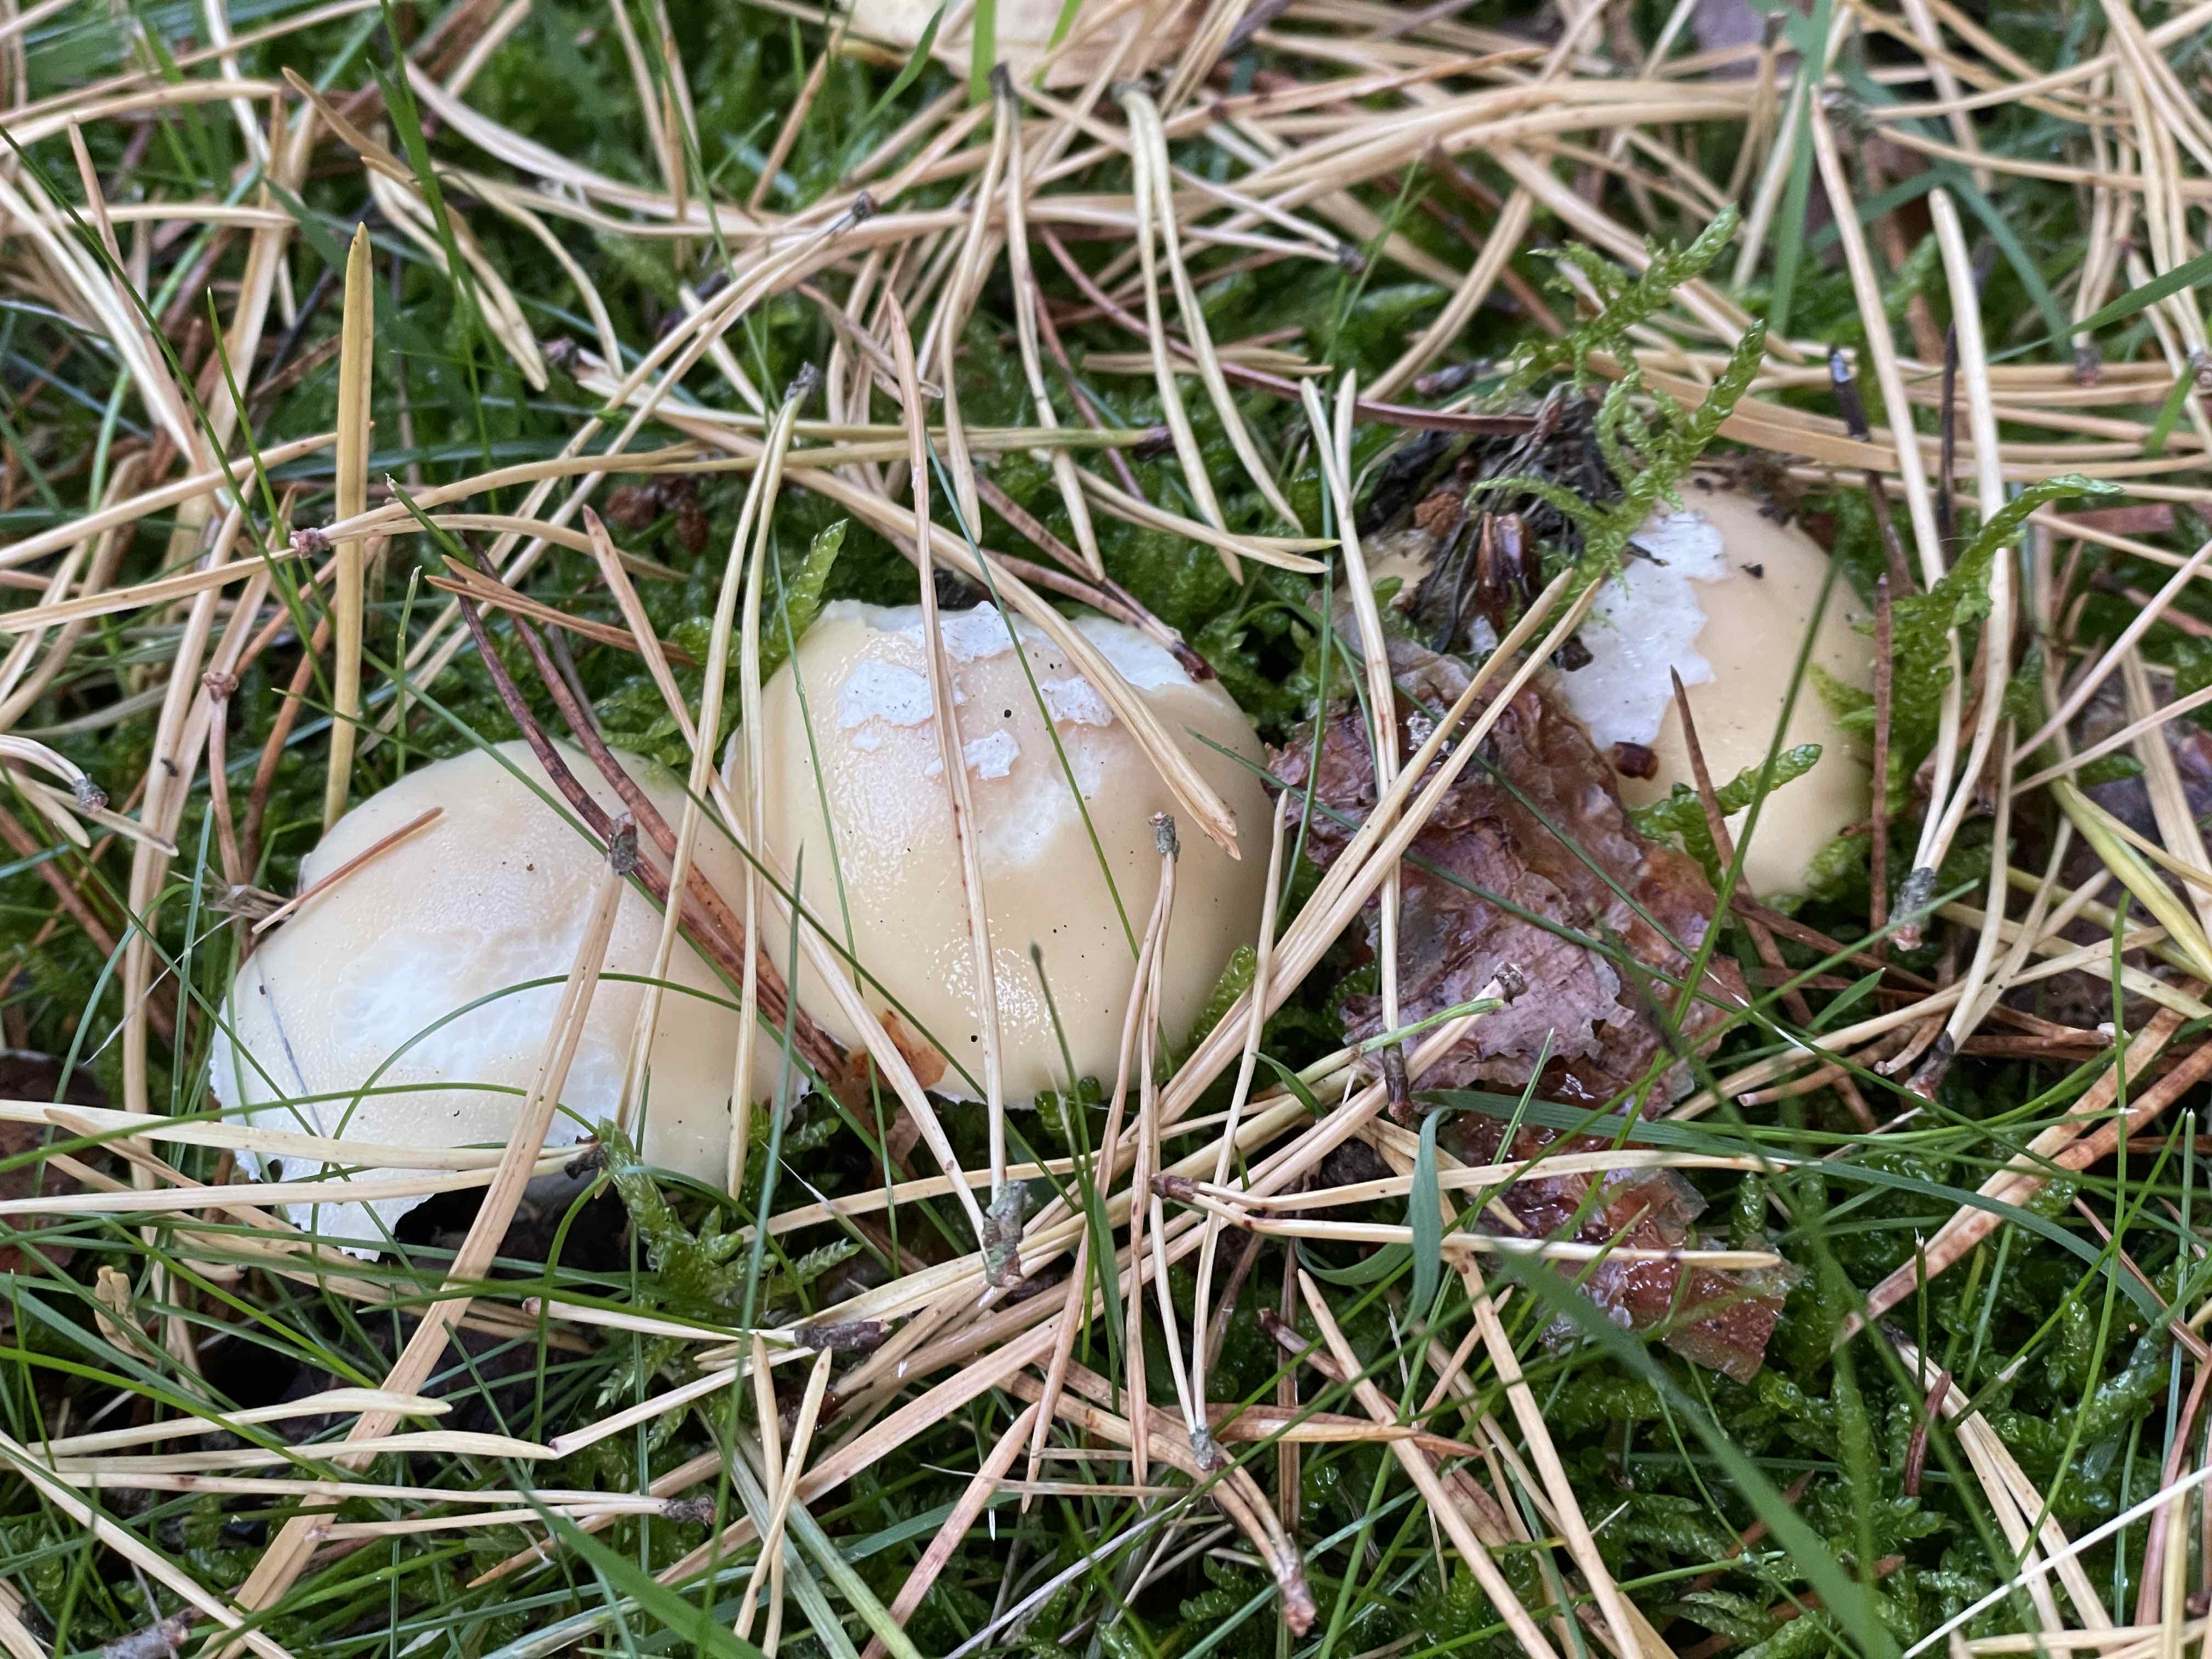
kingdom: Fungi
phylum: Basidiomycota
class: Agaricomycetes
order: Agaricales
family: Amanitaceae
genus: Amanita
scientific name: Amanita gemmata
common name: okkergul fluesvamp
